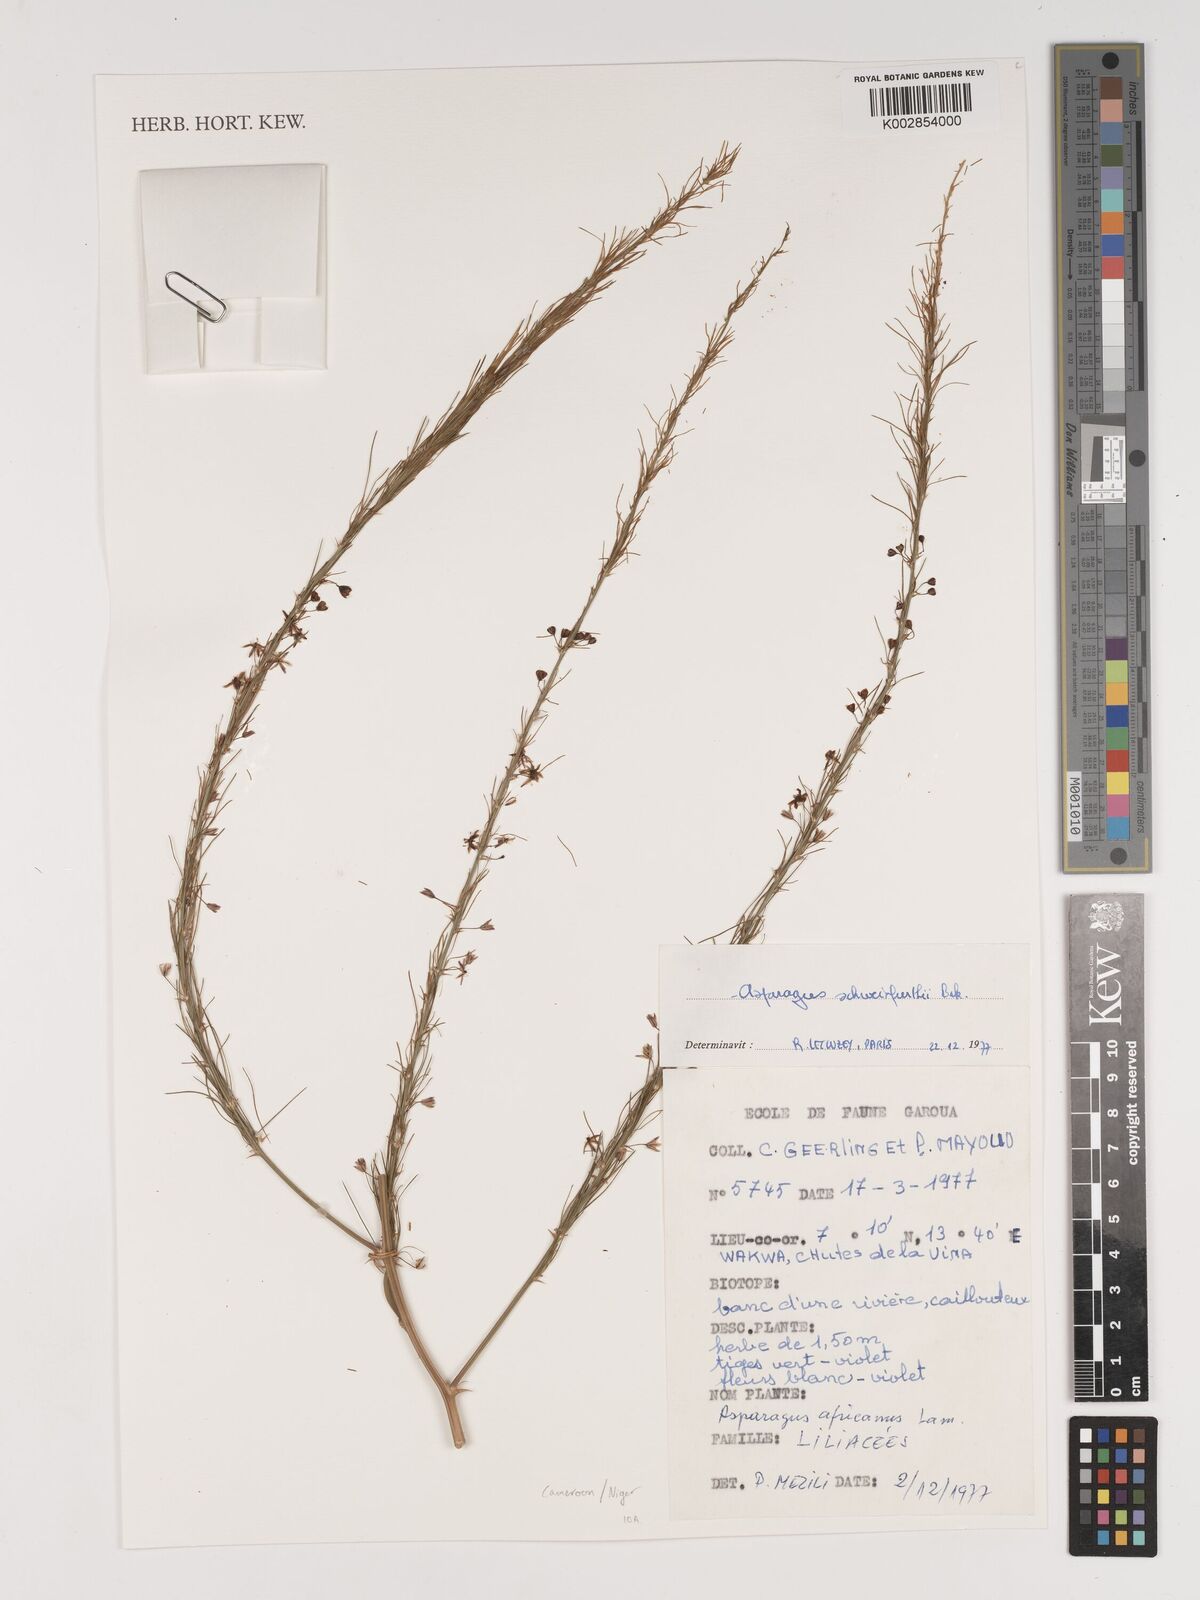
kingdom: Plantae
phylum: Tracheophyta
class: Liliopsida
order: Asparagales
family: Asparagaceae
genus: Asparagus
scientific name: Asparagus flagellaris
